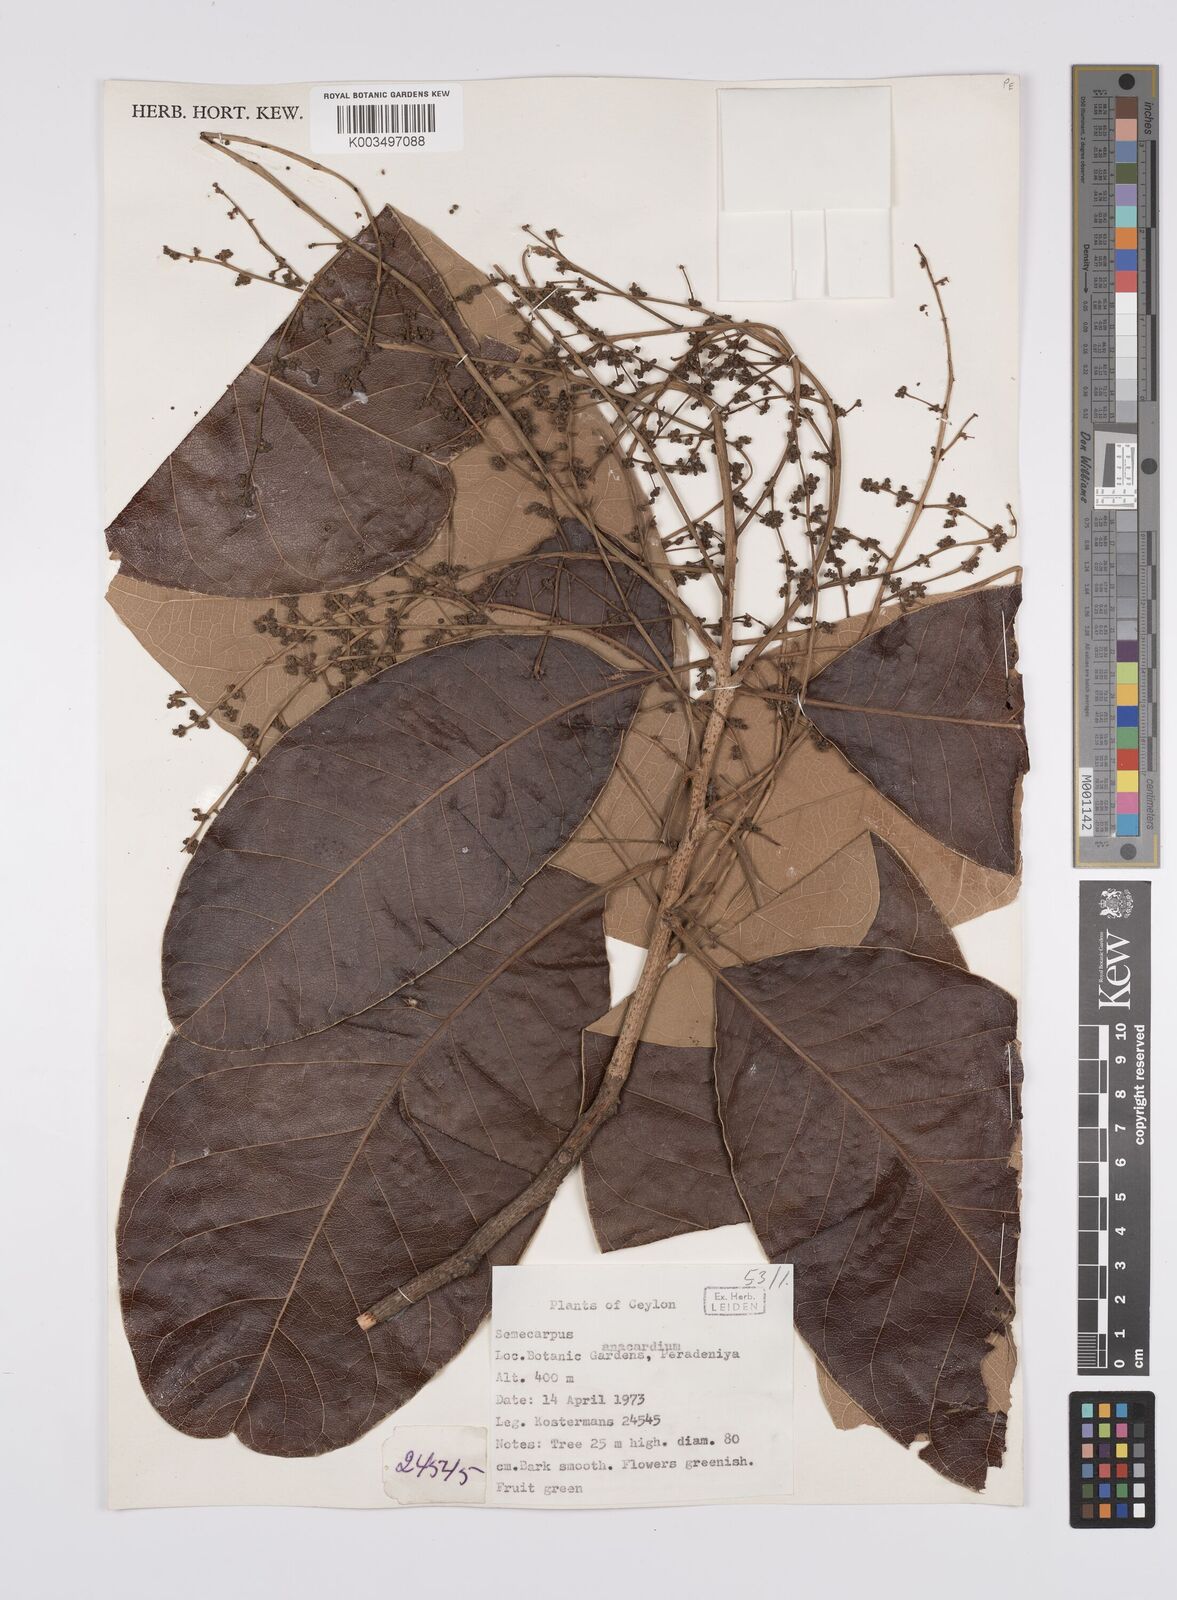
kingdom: Plantae
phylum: Tracheophyta
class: Magnoliopsida
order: Sapindales
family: Anacardiaceae
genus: Semecarpus
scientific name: Semecarpus anacardium
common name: Marking nut-tree
